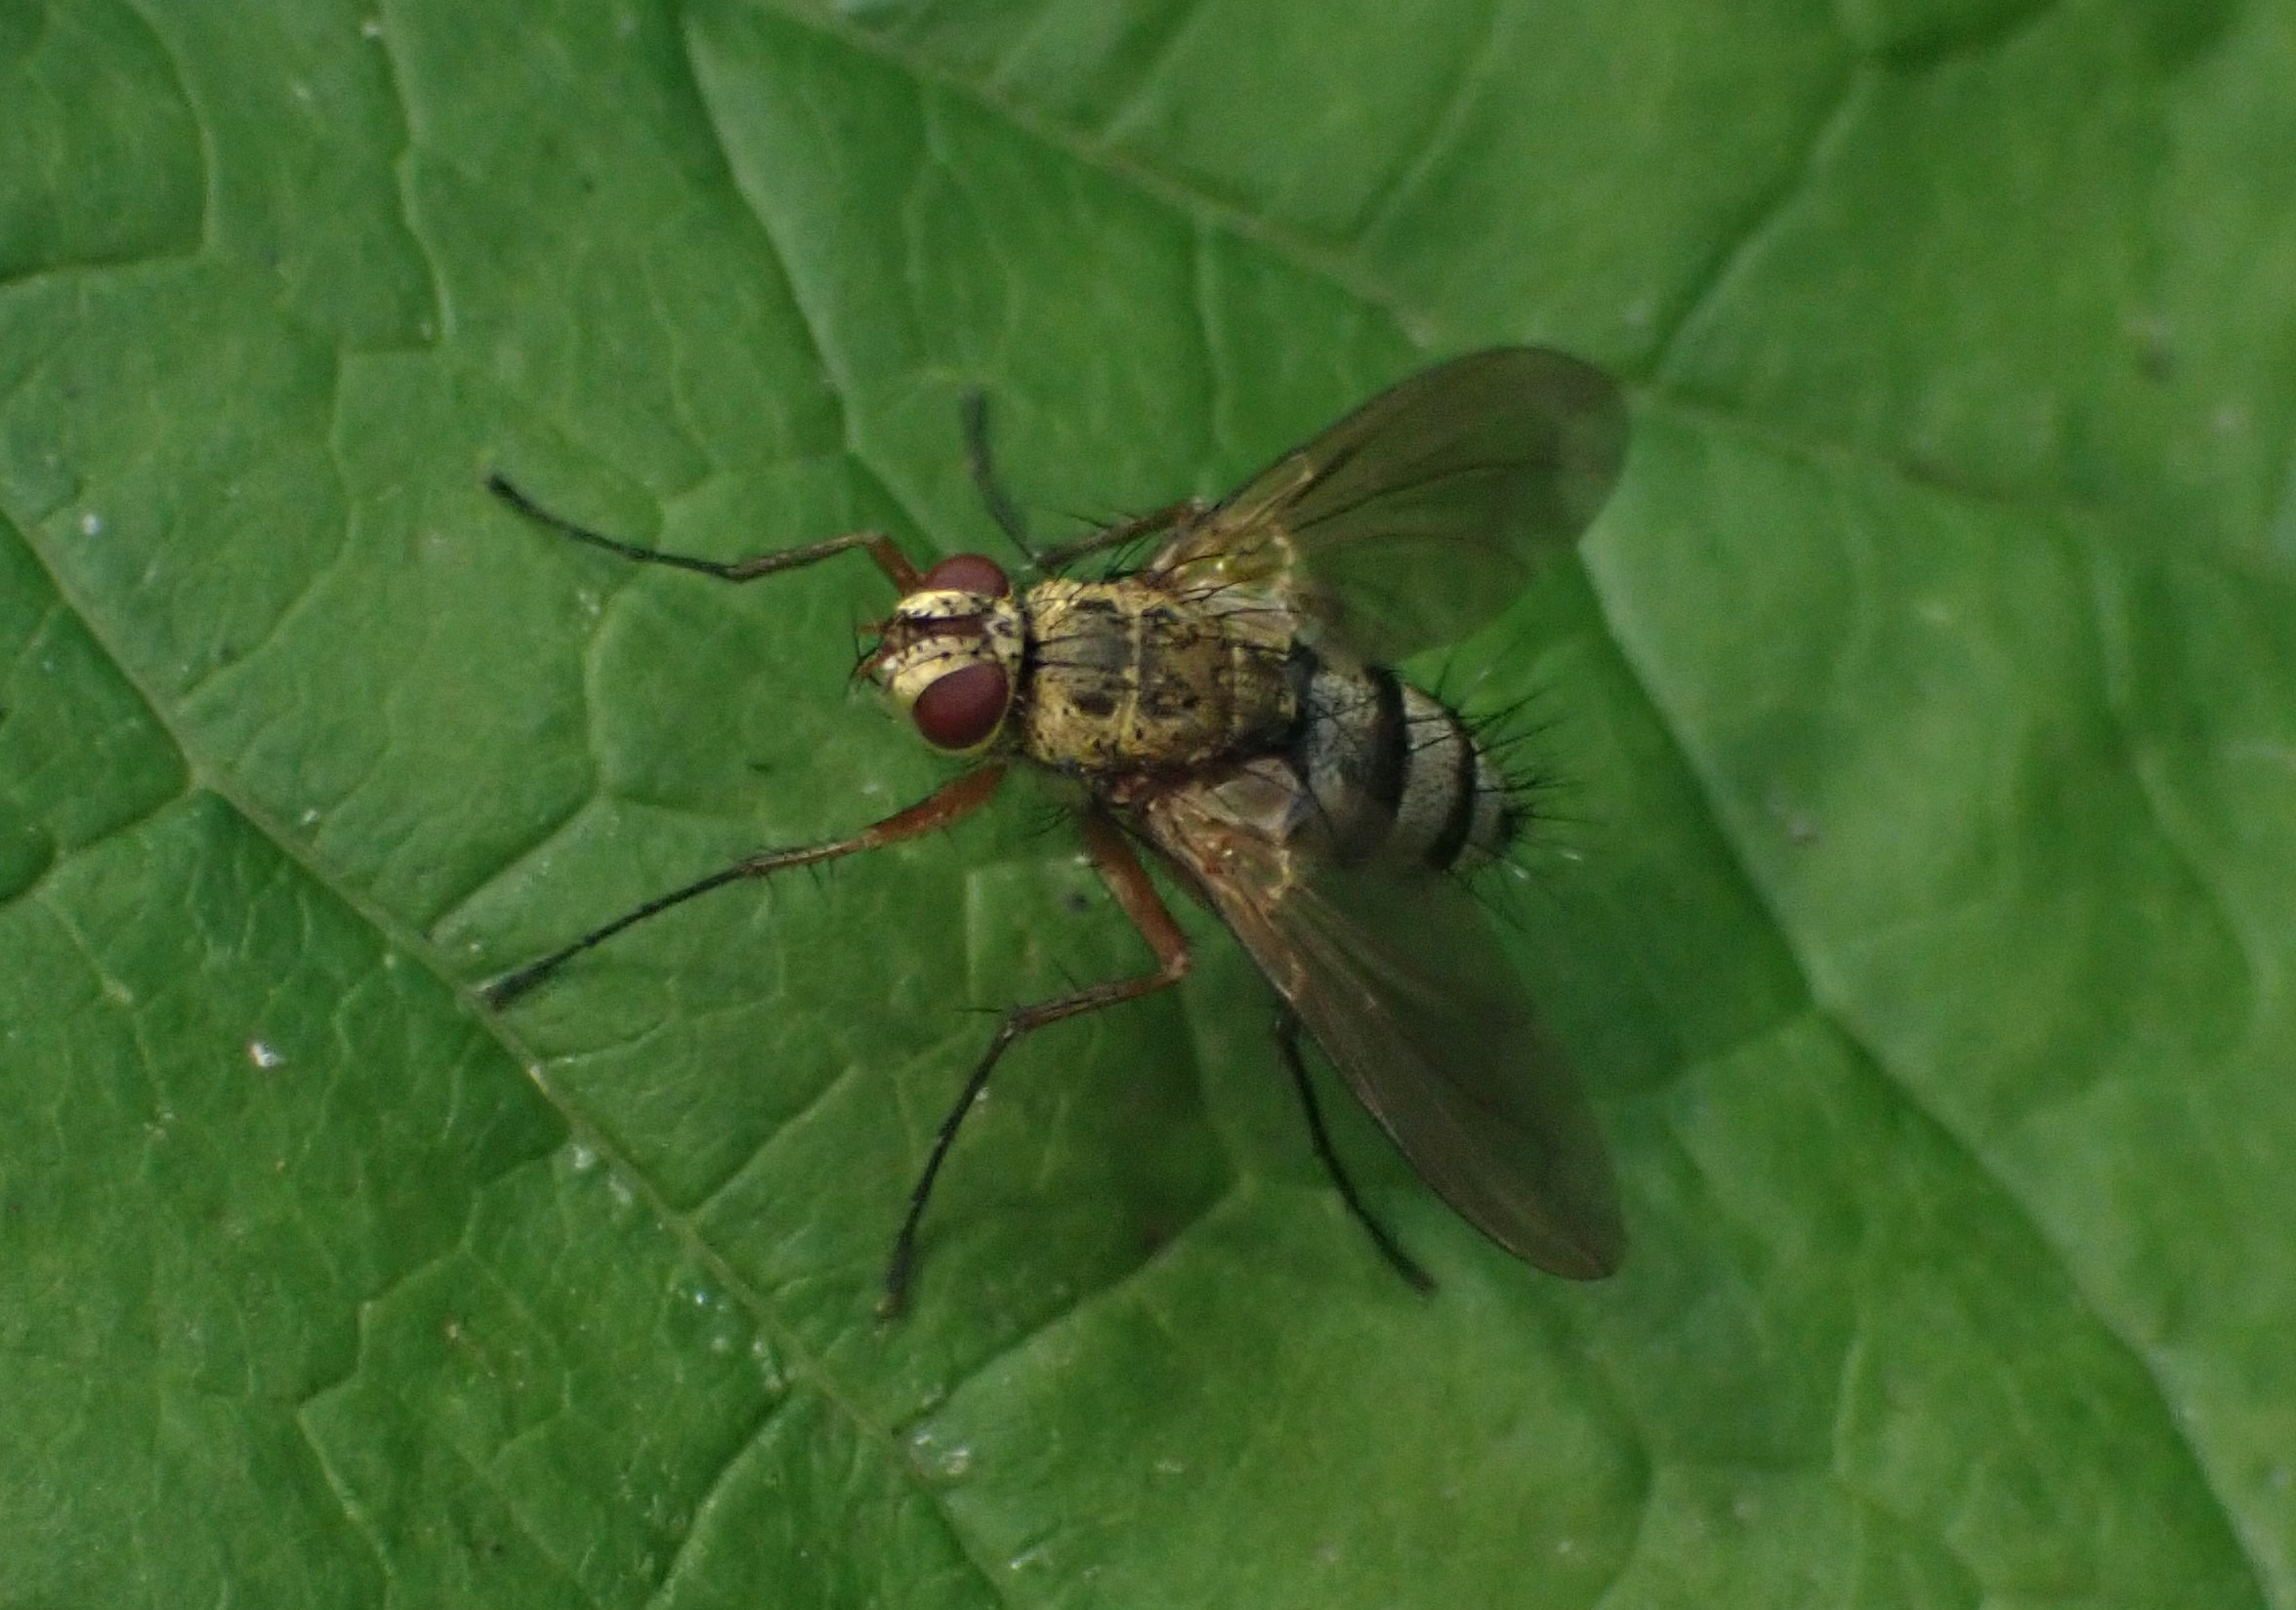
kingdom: Animalia
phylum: Arthropoda
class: Insecta
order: Diptera
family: Tachinidae
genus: Dexiosoma
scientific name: Dexiosoma caninum
